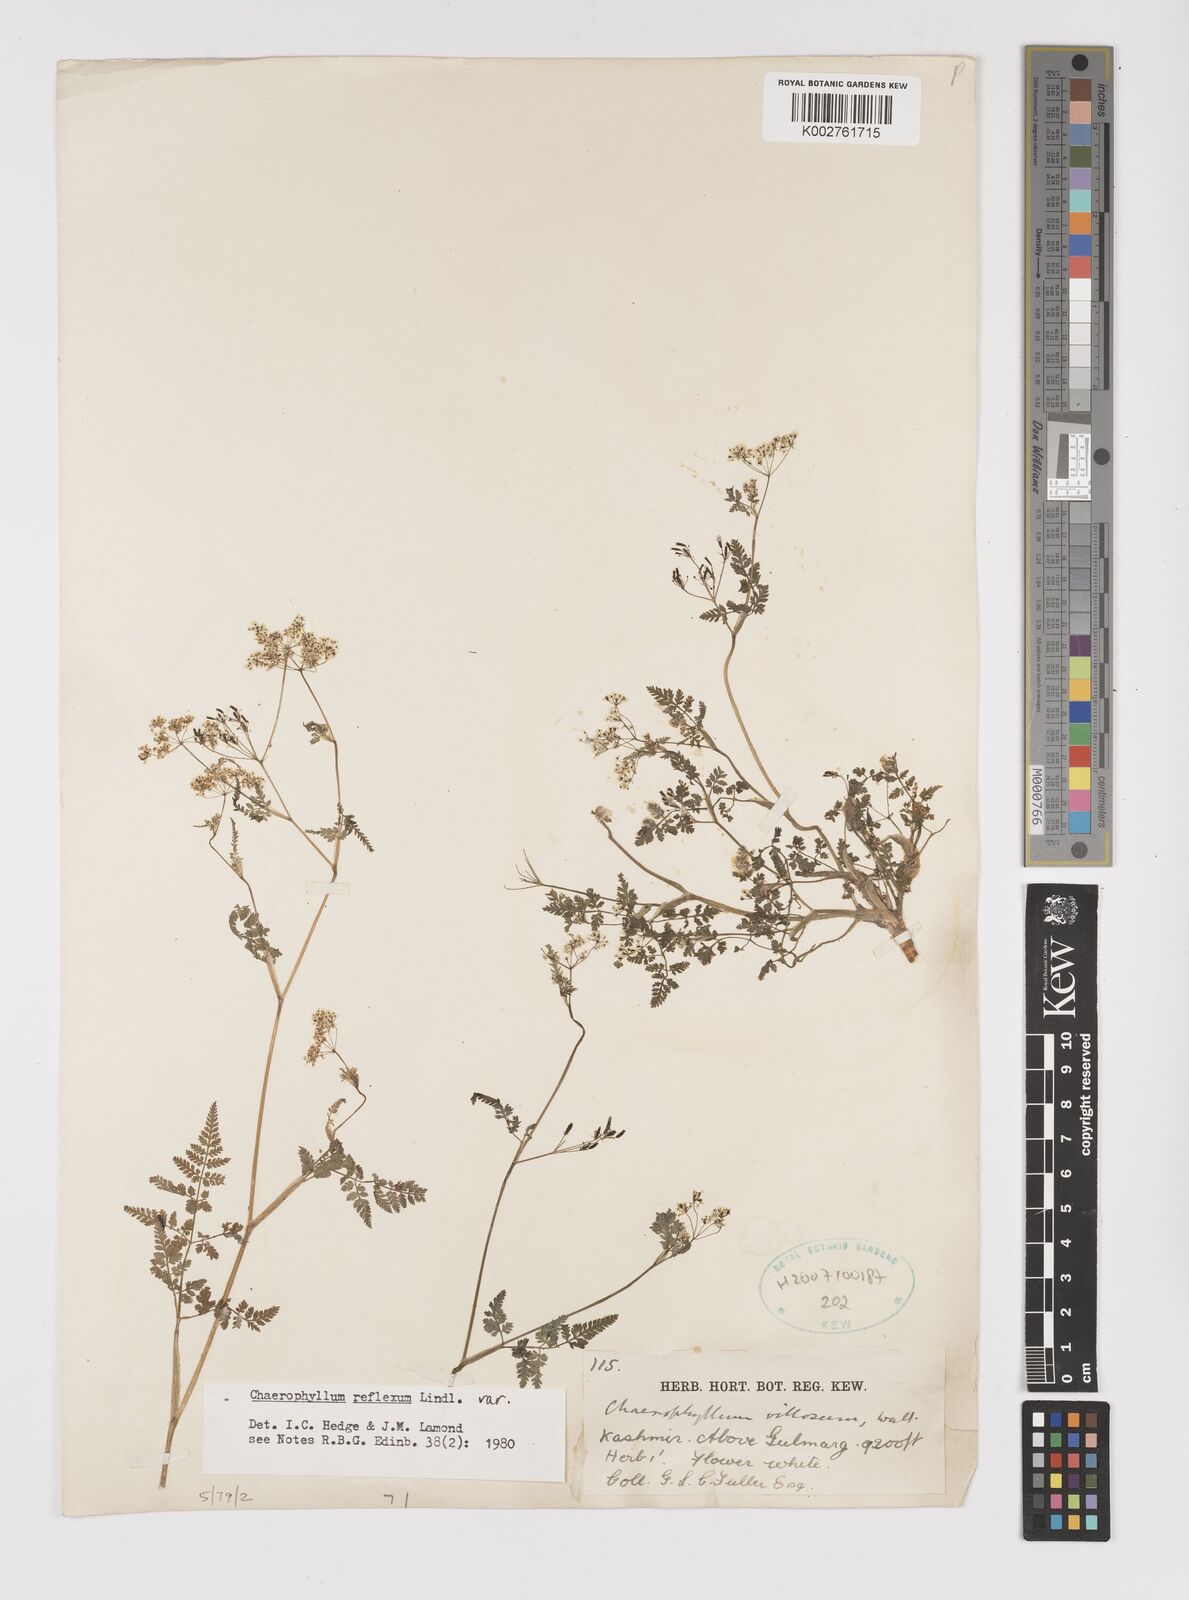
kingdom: Plantae
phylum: Tracheophyta
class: Magnoliopsida
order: Apiales
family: Apiaceae
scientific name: Apiaceae
